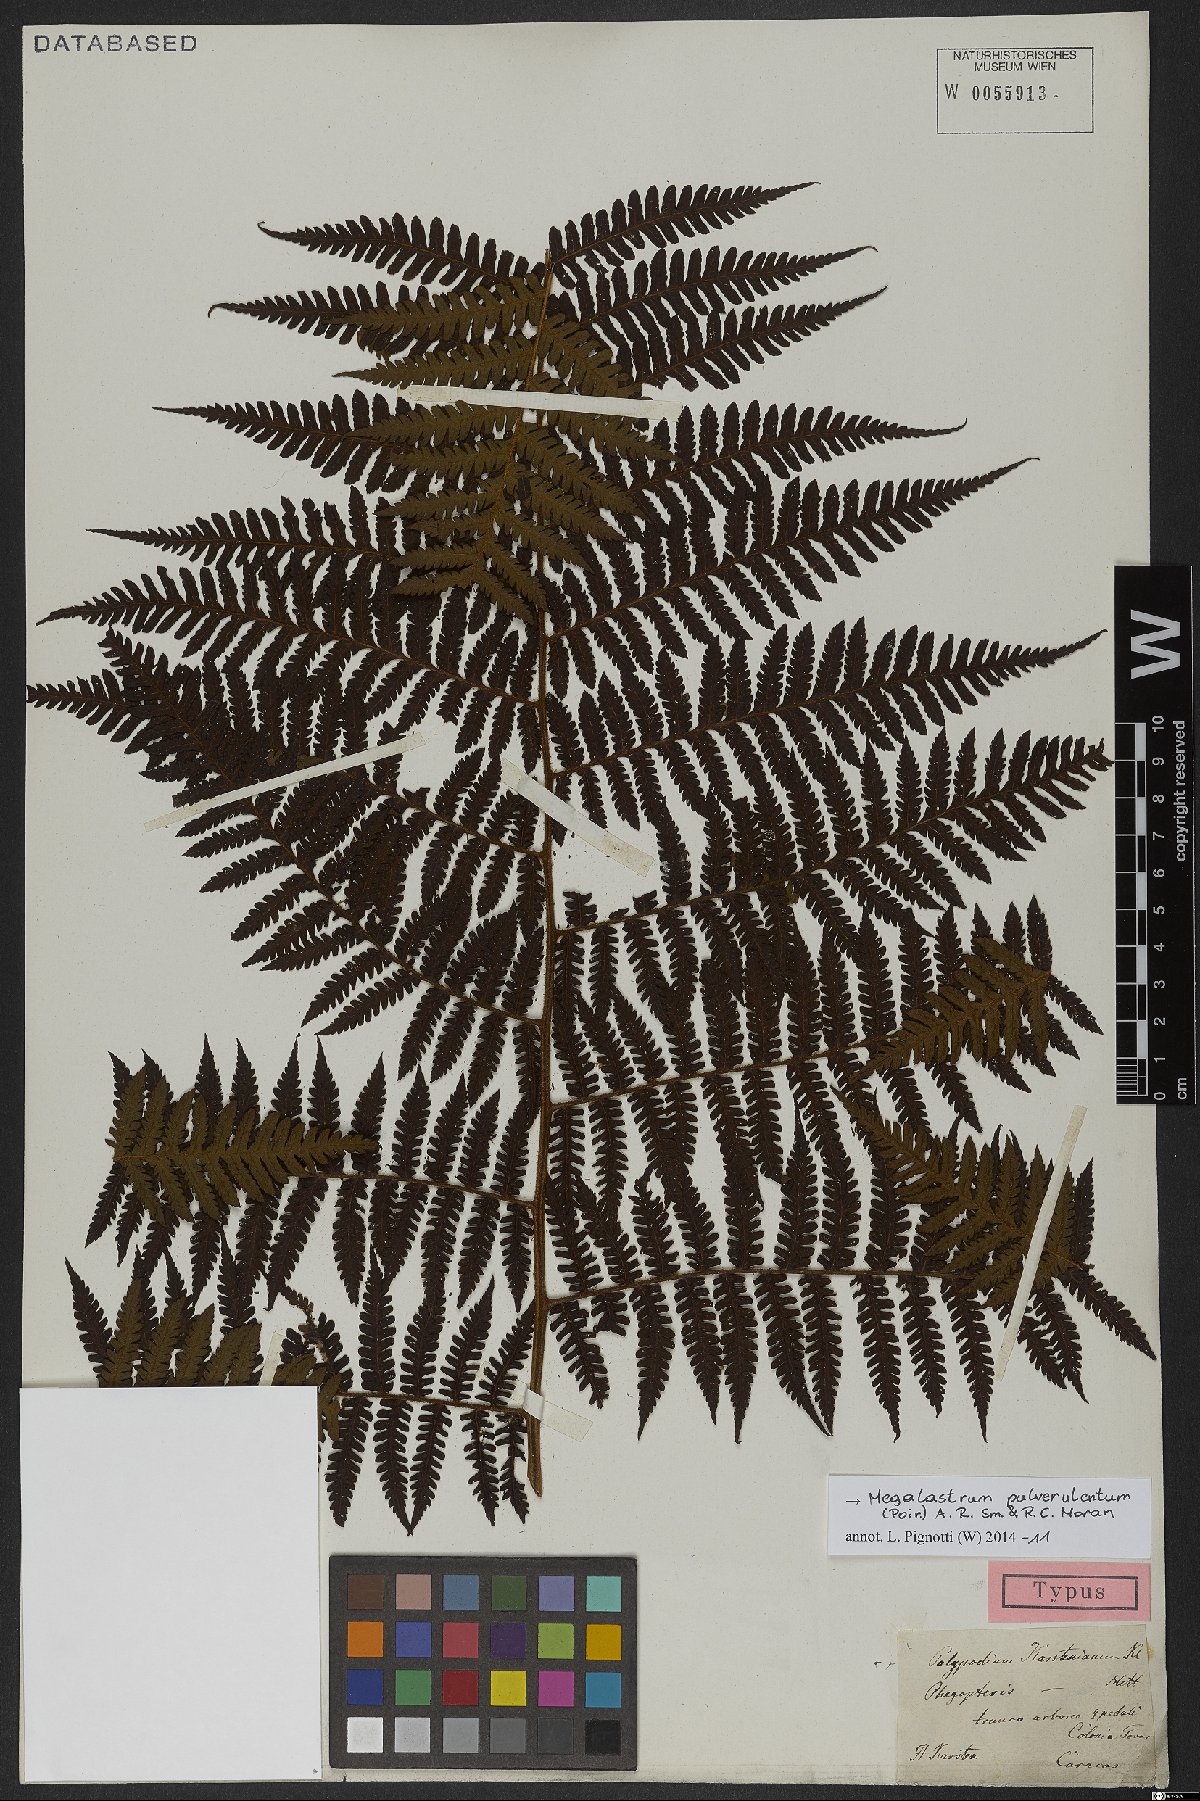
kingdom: Plantae
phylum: Tracheophyta
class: Polypodiopsida
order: Polypodiales
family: Dryopteridaceae
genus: Megalastrum
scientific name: Megalastrum pulverulentum
